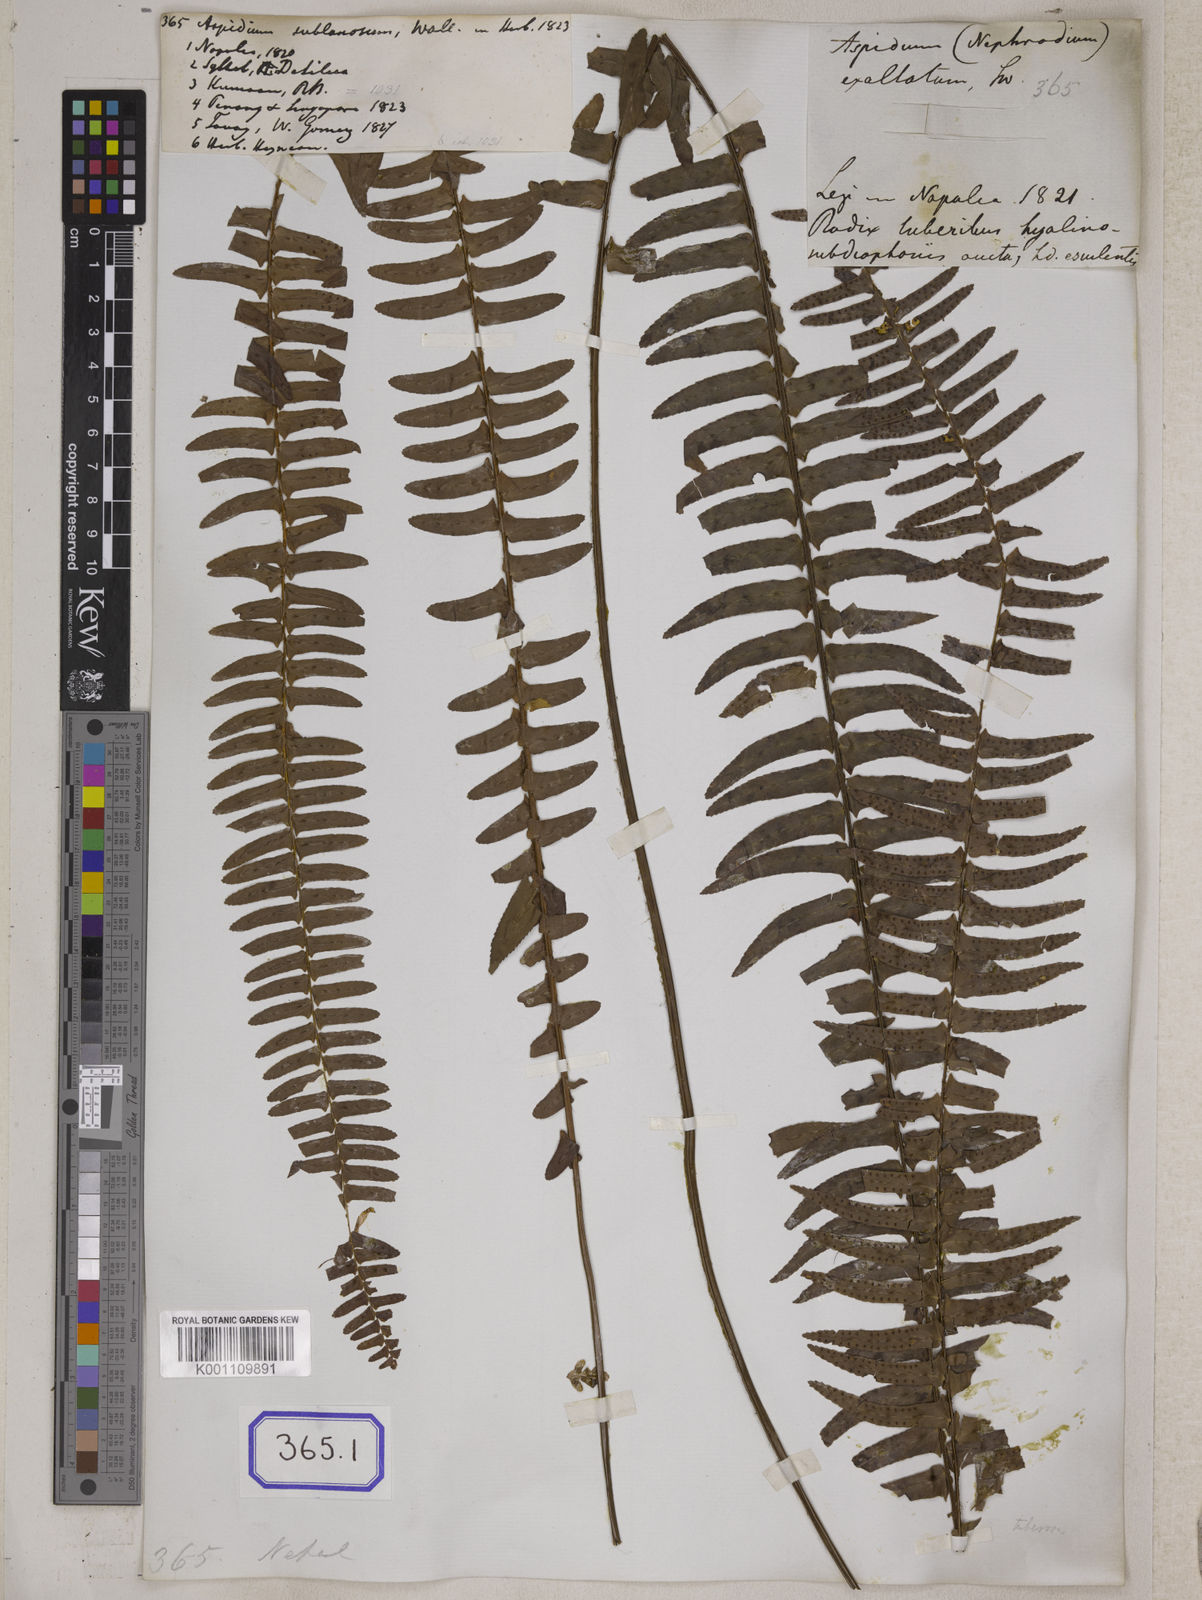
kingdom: Plantae
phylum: Tracheophyta
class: Polypodiopsida
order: Polypodiales
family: Nephrolepidaceae
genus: Nephrolepis
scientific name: Nephrolepis cordifolia
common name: Narrow swordfern
